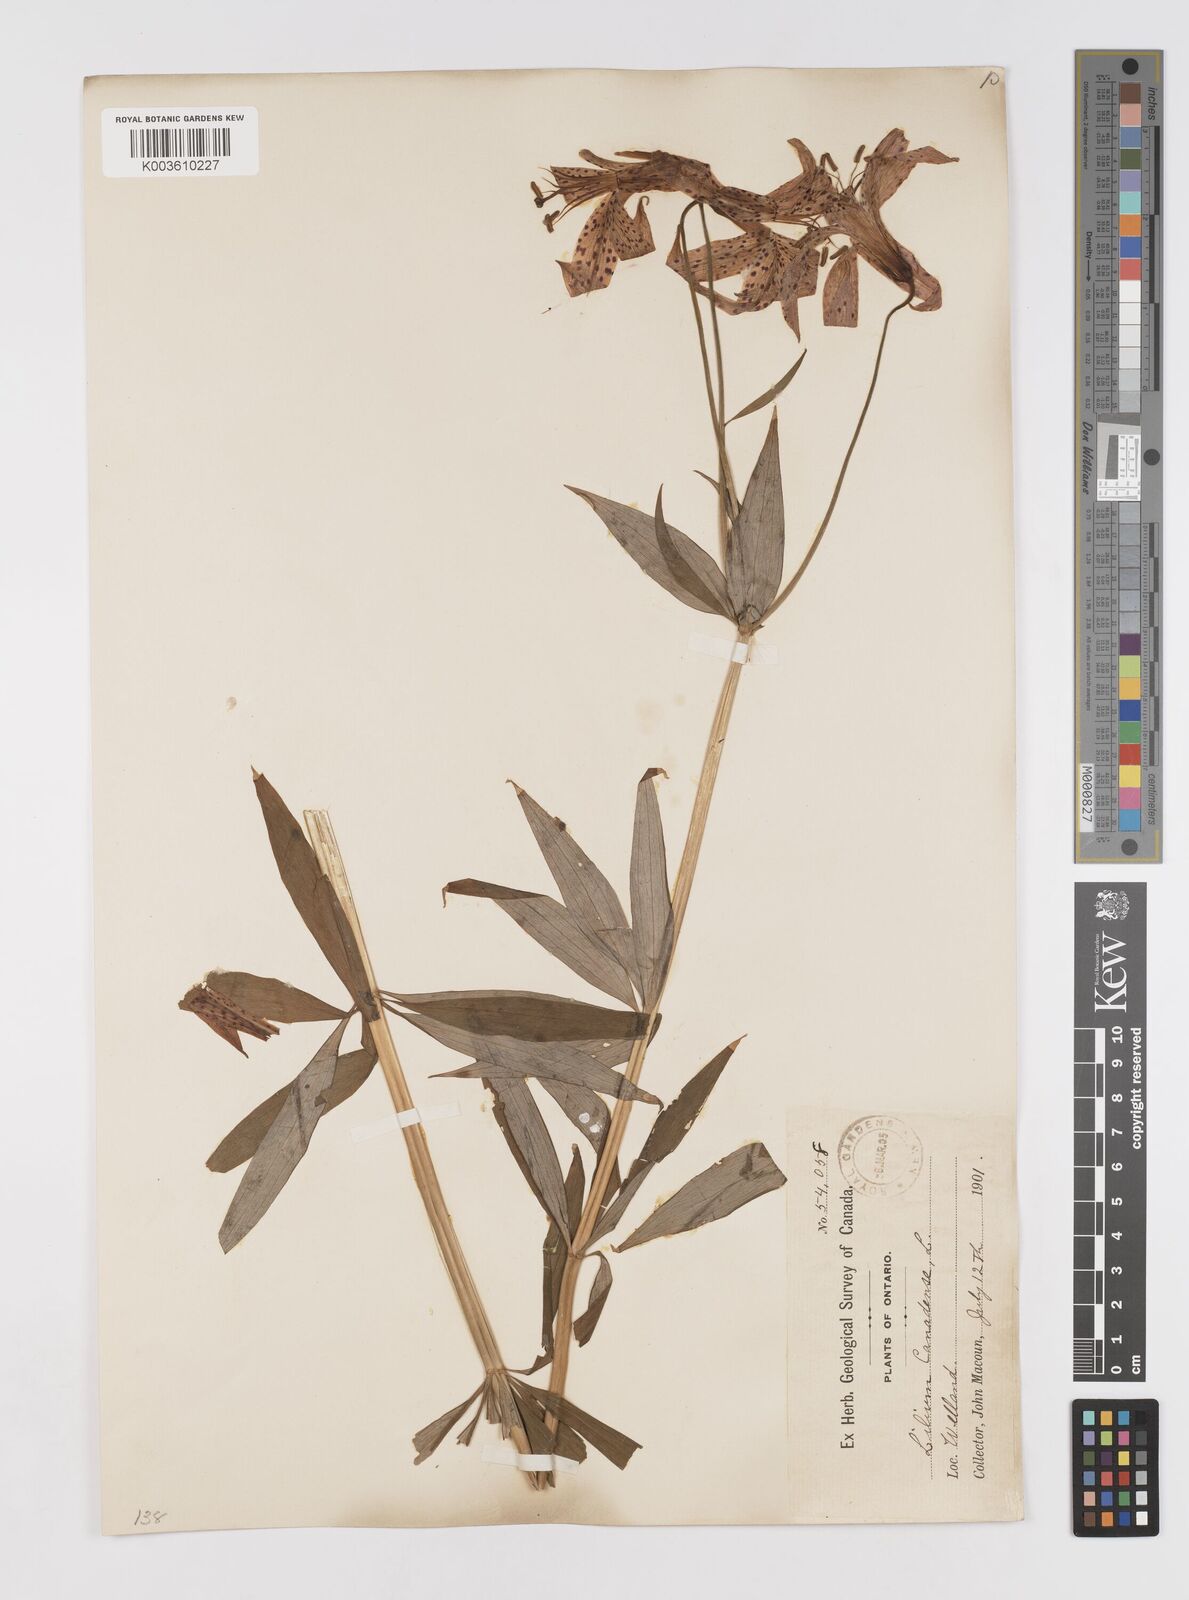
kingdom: Plantae
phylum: Tracheophyta
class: Liliopsida
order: Liliales
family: Liliaceae
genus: Lilium
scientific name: Lilium canadense
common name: Canada lily
